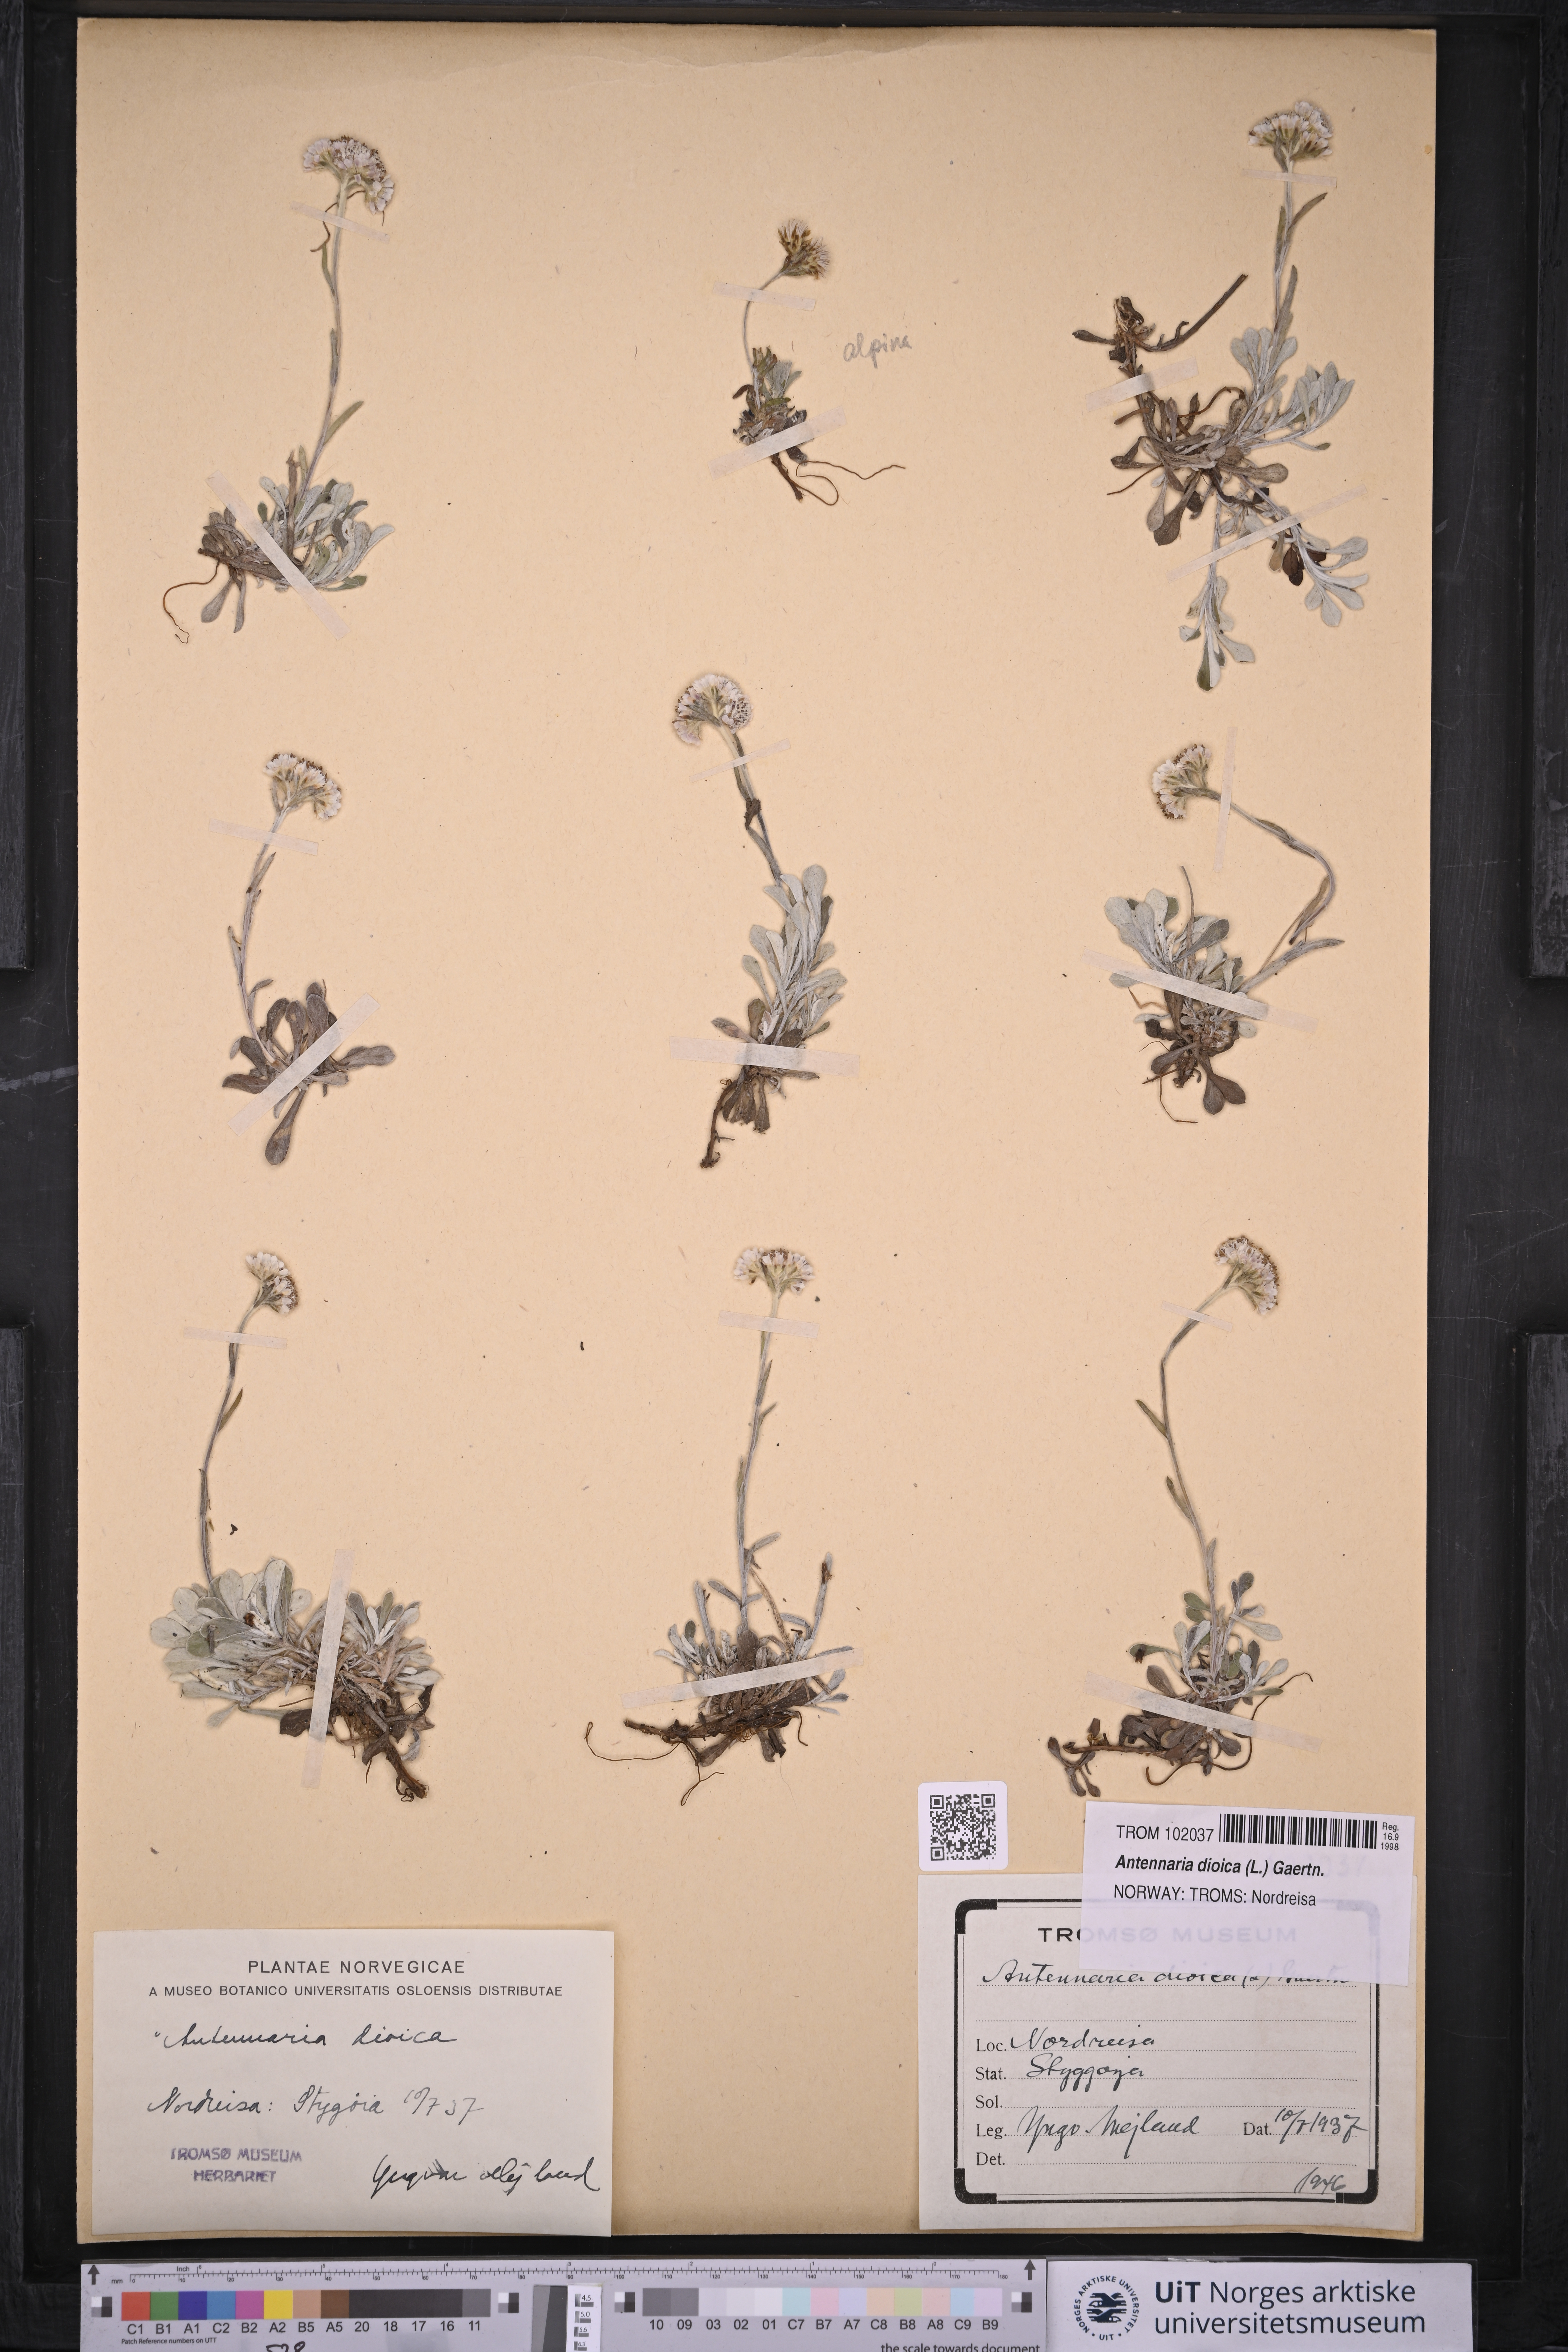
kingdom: Plantae
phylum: Tracheophyta
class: Magnoliopsida
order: Asterales
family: Asteraceae
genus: Antennaria
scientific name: Antennaria dioica
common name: Mountain everlasting
